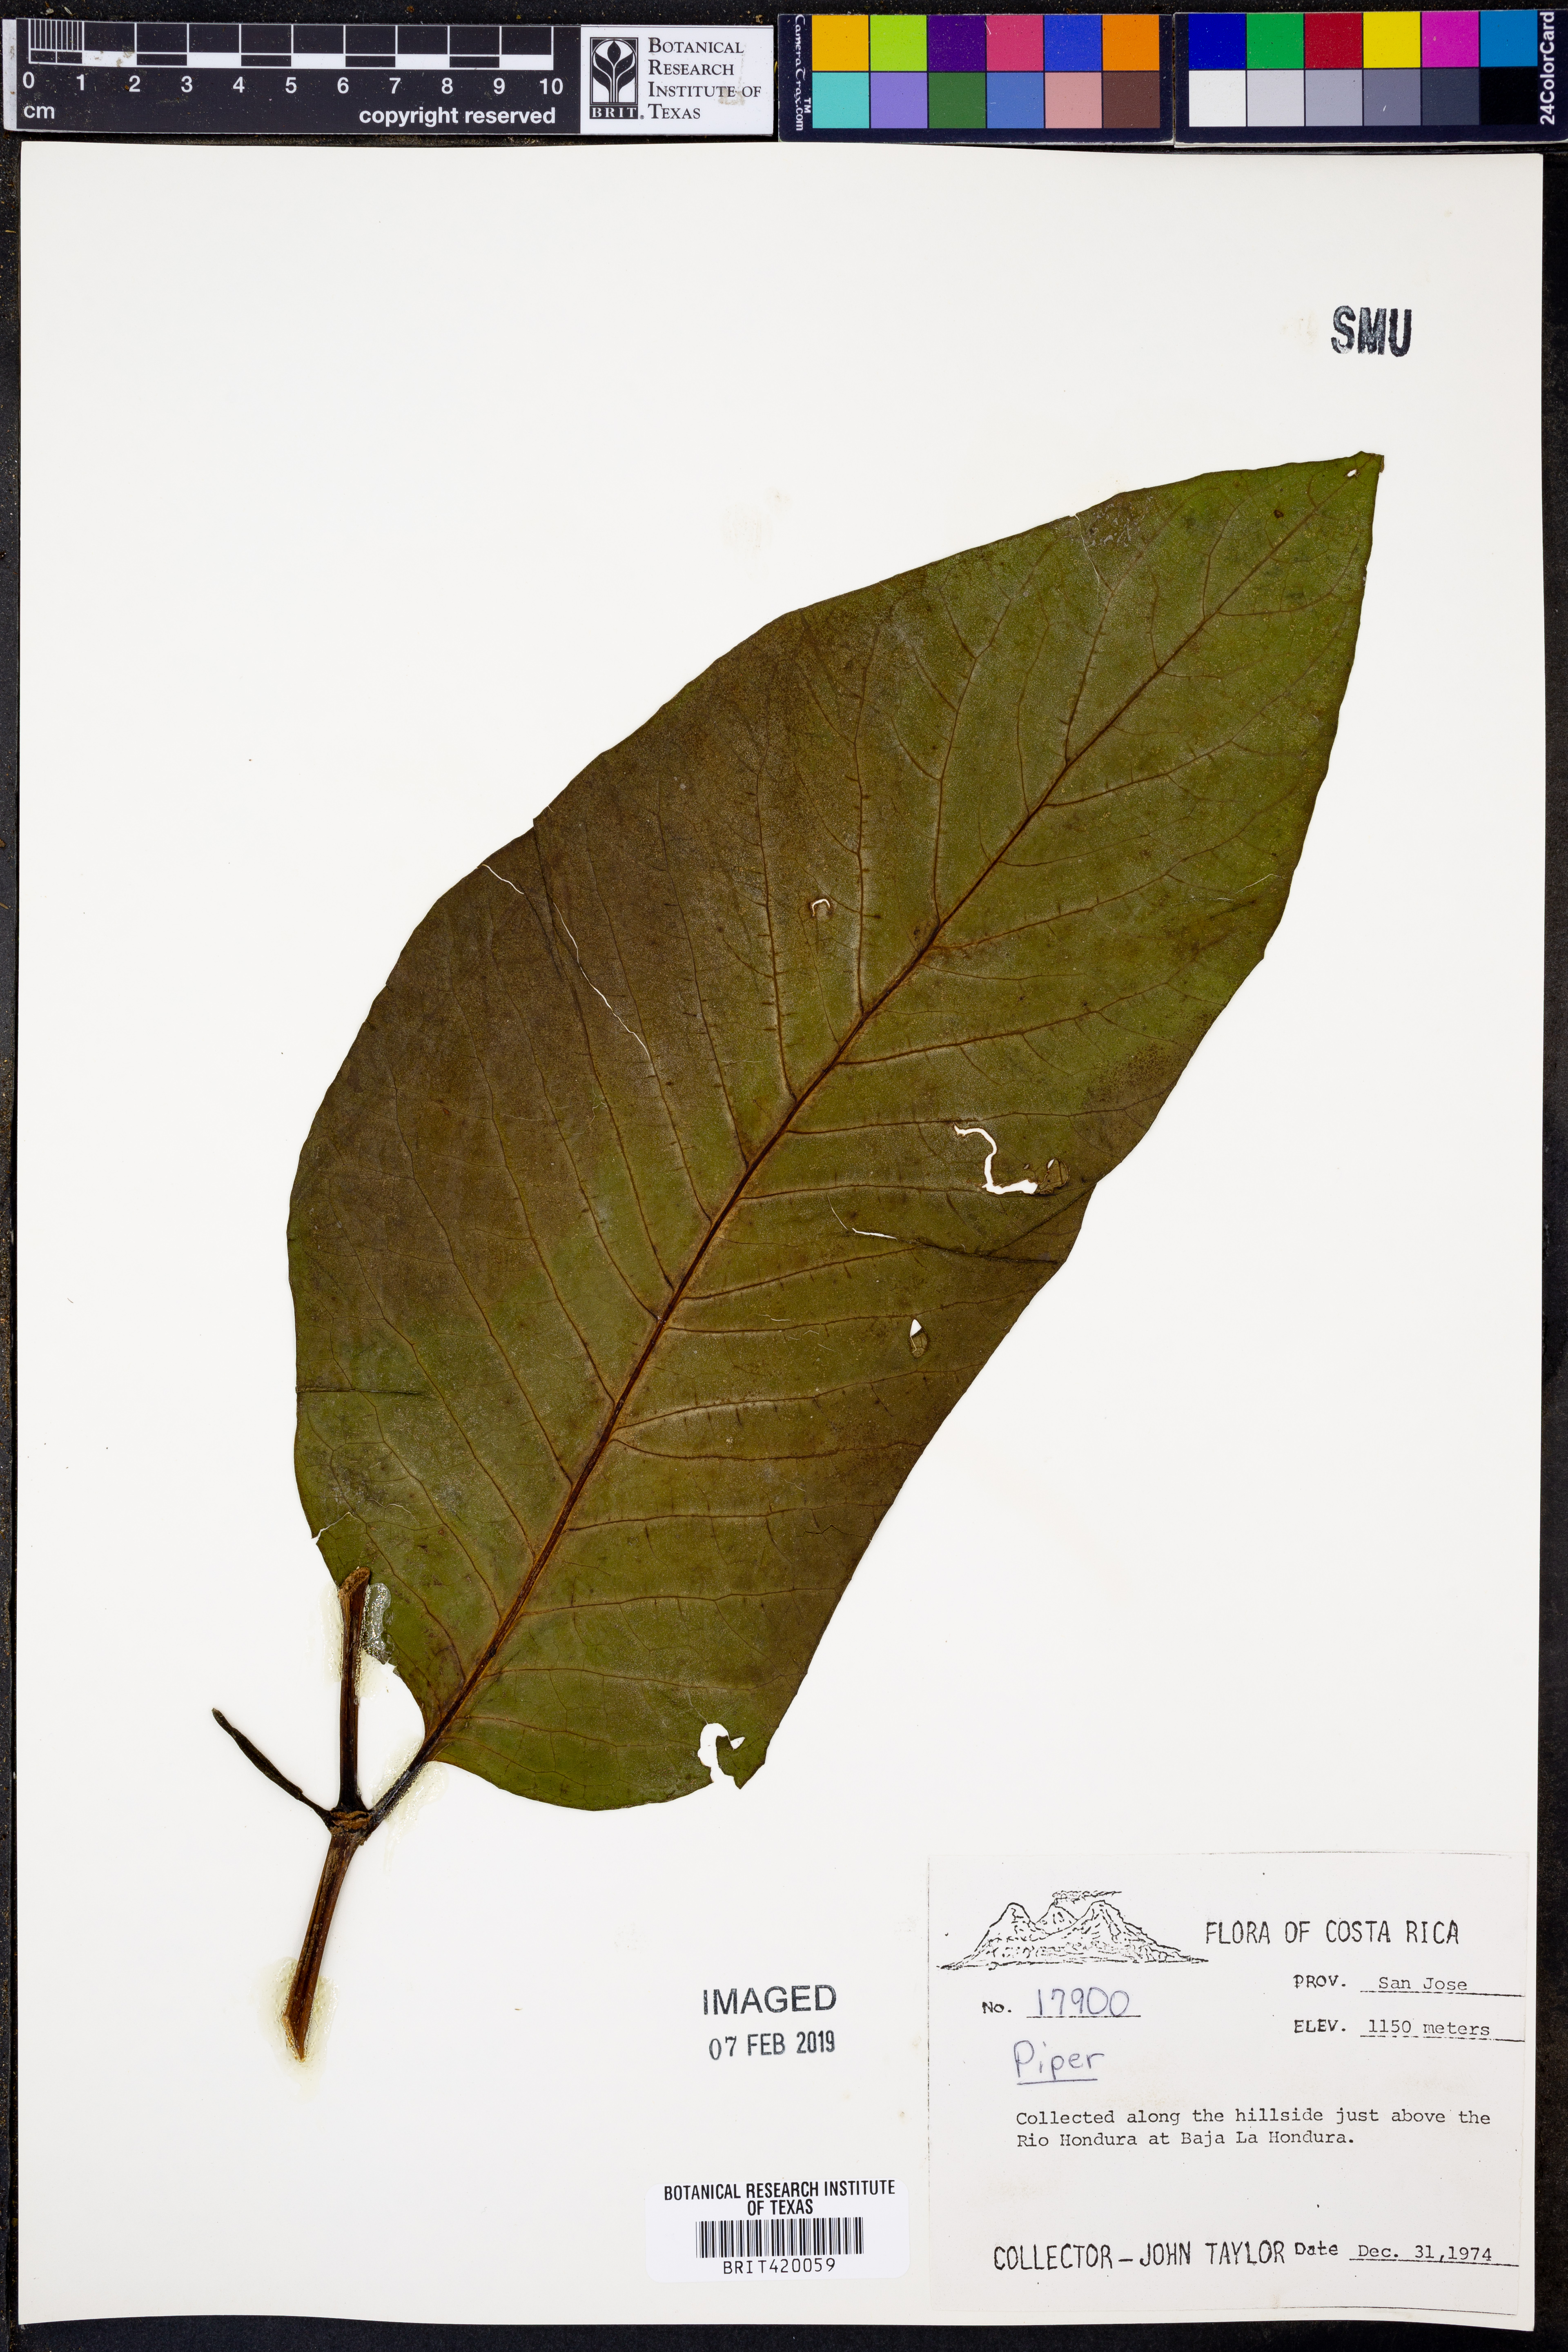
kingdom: Plantae
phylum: Tracheophyta
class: Magnoliopsida
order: Piperales
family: Piperaceae
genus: Piper
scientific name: Piper
